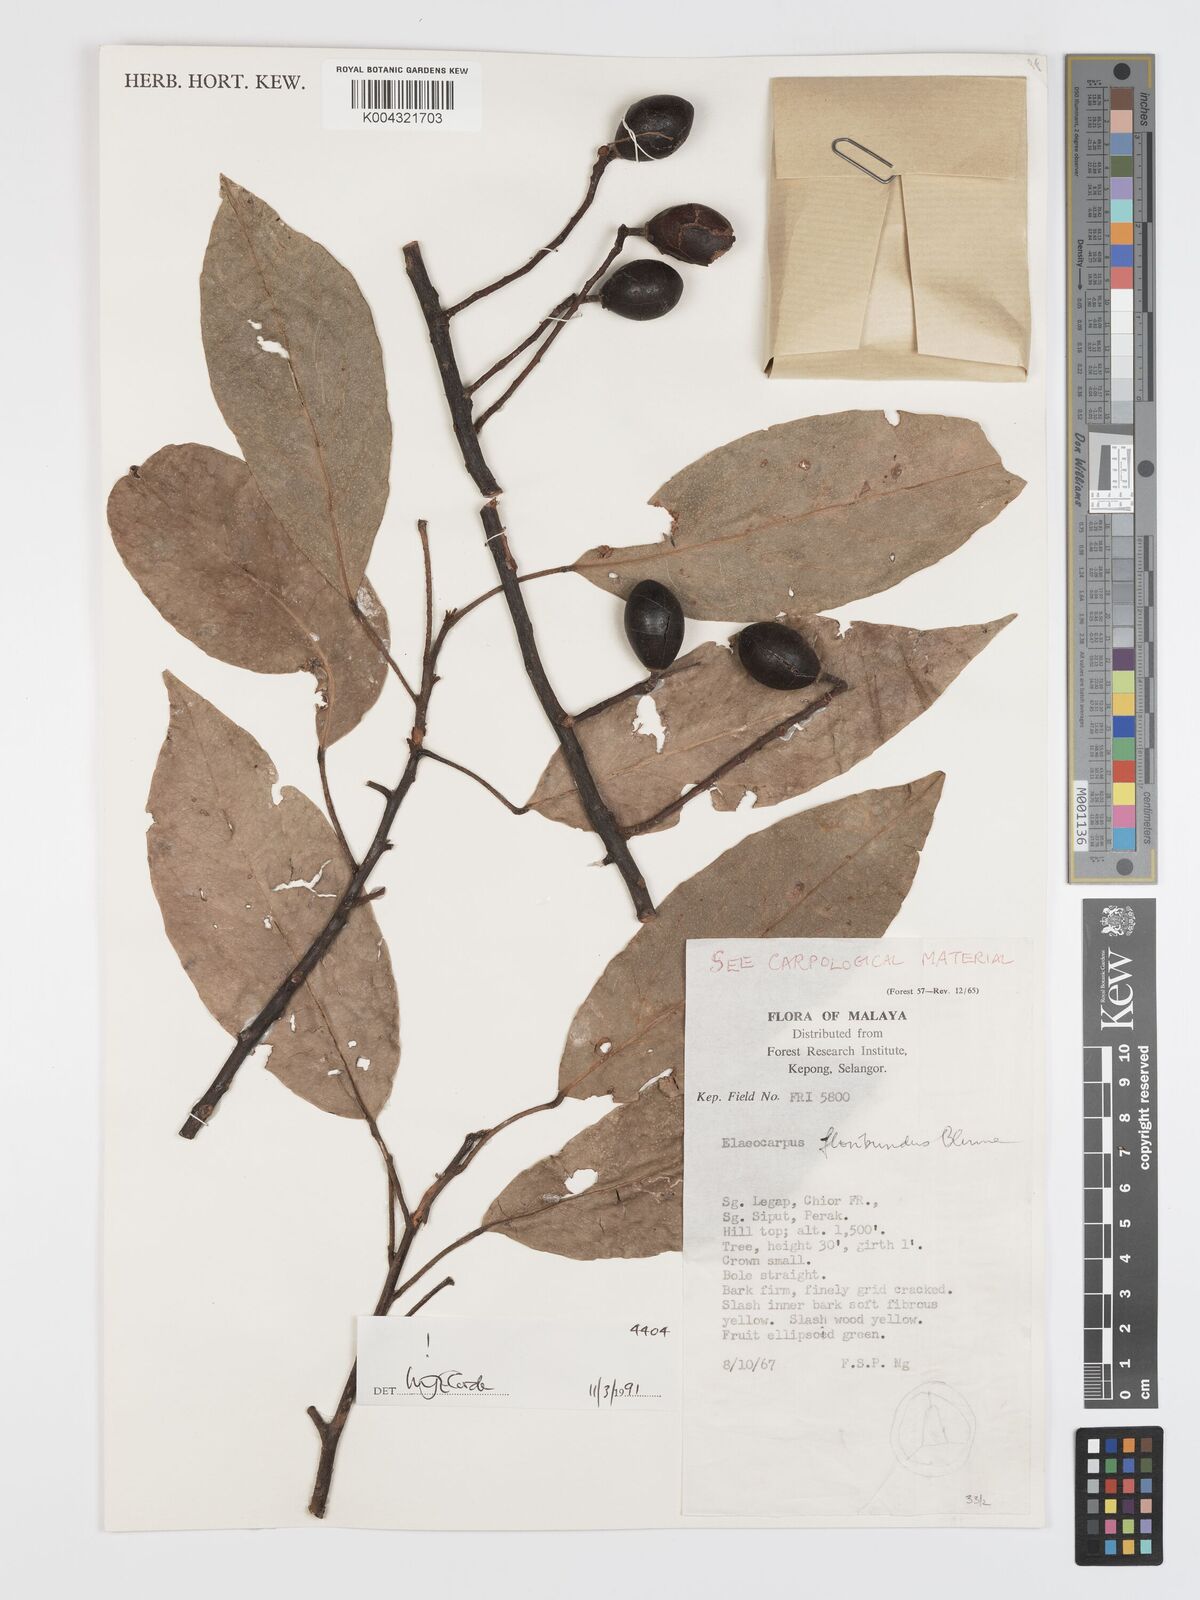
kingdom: Plantae
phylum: Tracheophyta
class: Magnoliopsida
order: Oxalidales
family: Elaeocarpaceae
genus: Elaeocarpus
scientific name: Elaeocarpus floribundus
